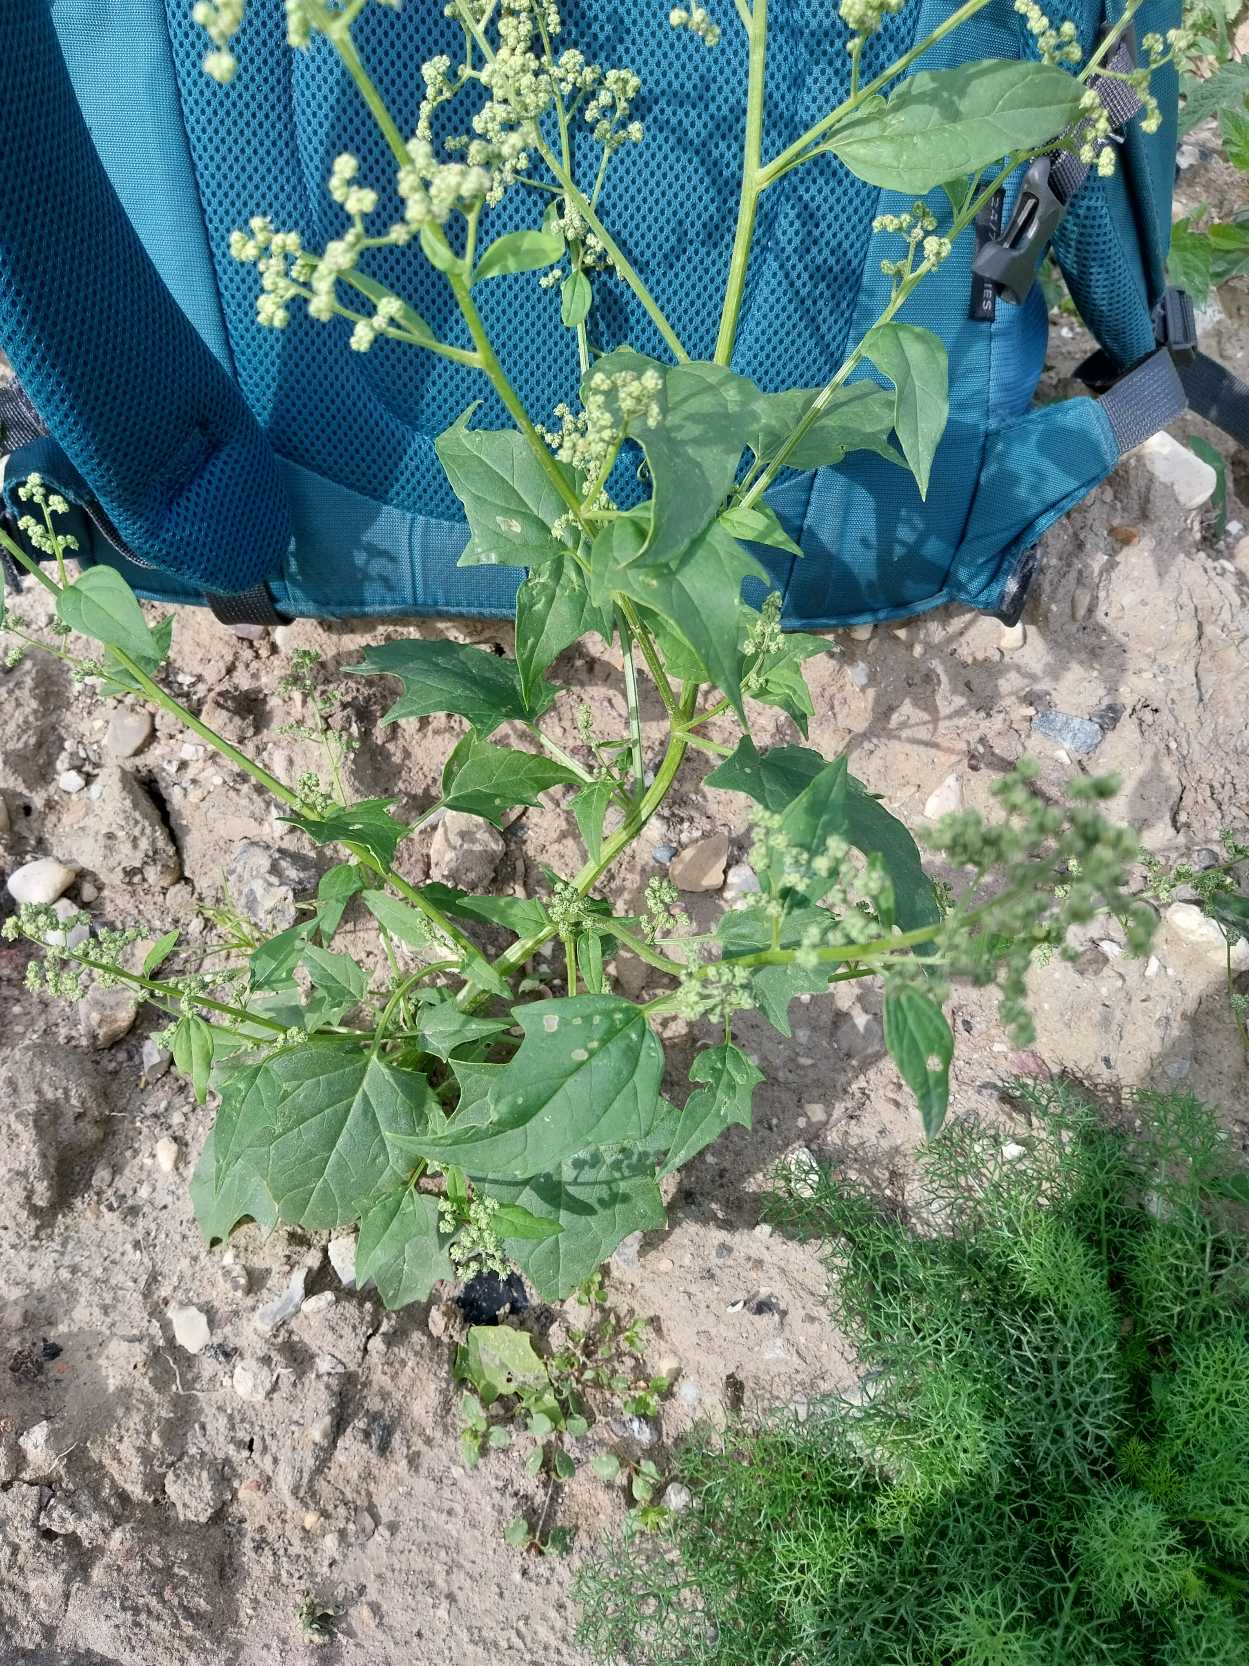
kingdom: Plantae
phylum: Tracheophyta
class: Magnoliopsida
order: Caryophyllales
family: Amaranthaceae
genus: Chenopodiastrum
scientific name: Chenopodiastrum hybridum
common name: Hjertebladet gåsefod
